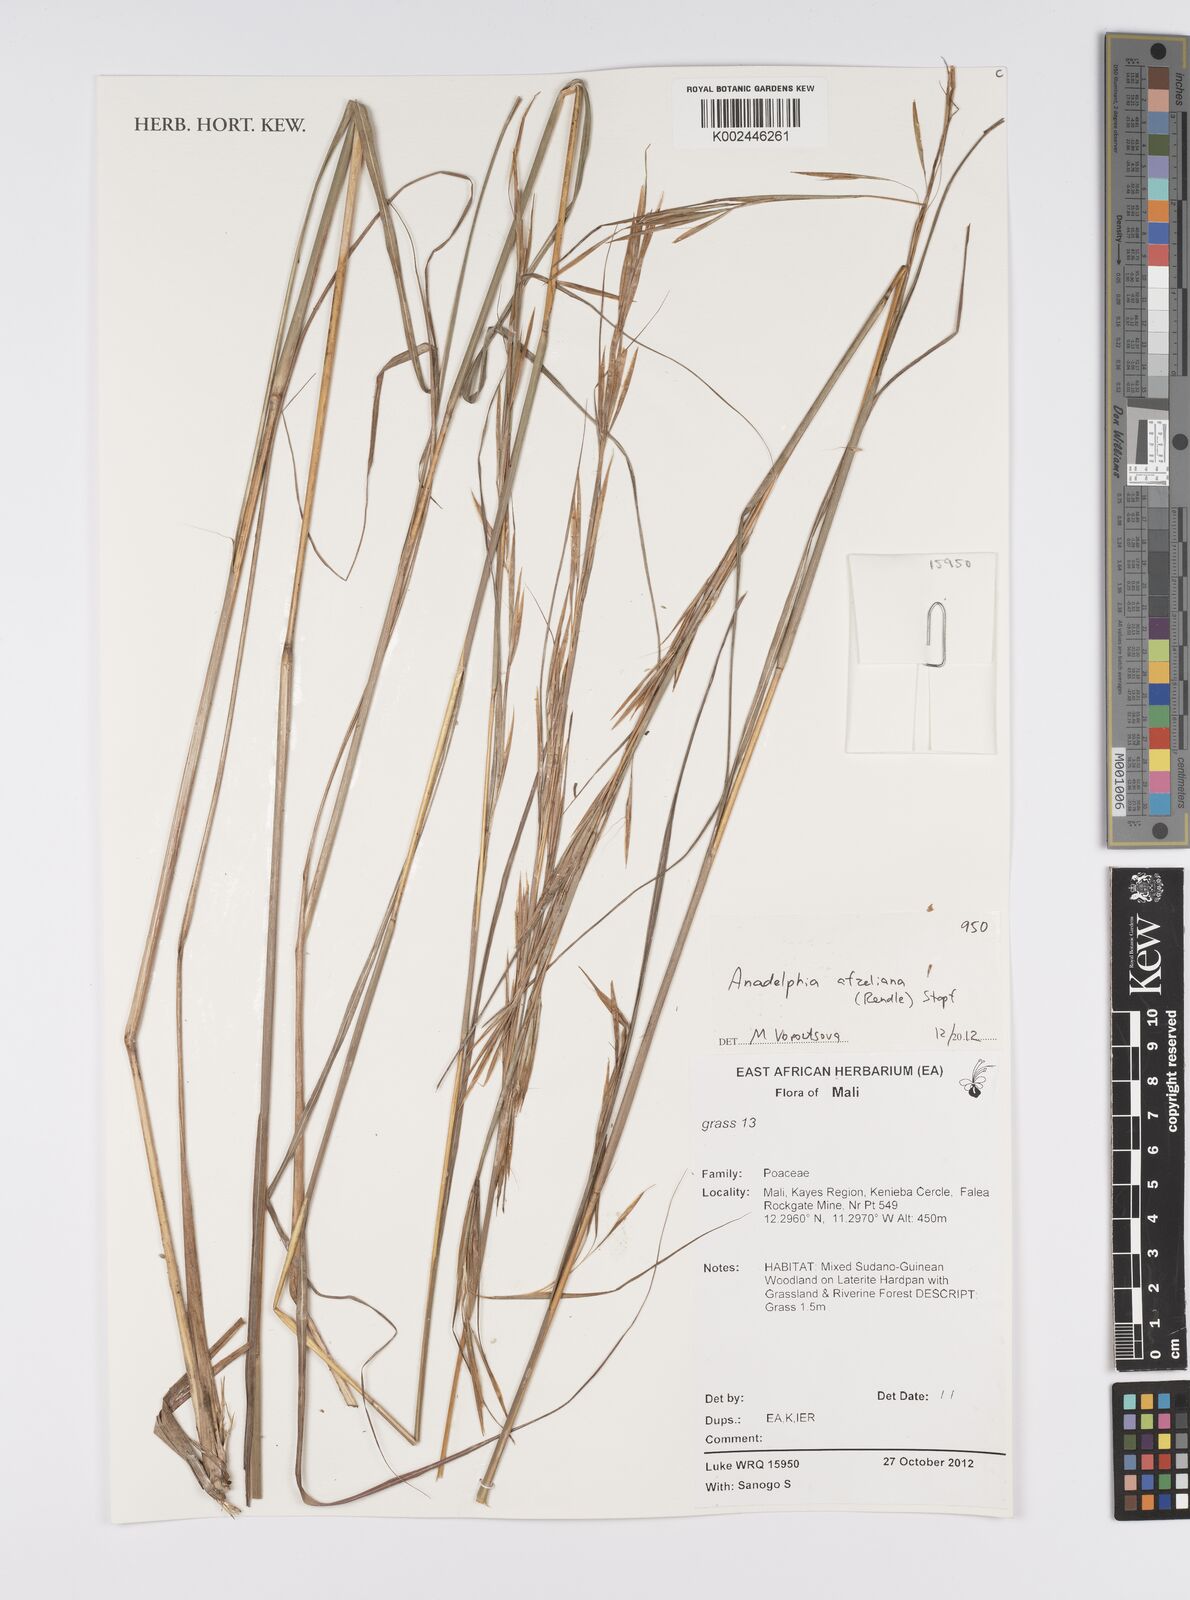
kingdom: Plantae
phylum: Tracheophyta
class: Liliopsida
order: Poales
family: Poaceae
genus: Anadelphia
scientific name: Anadelphia afzeliana
